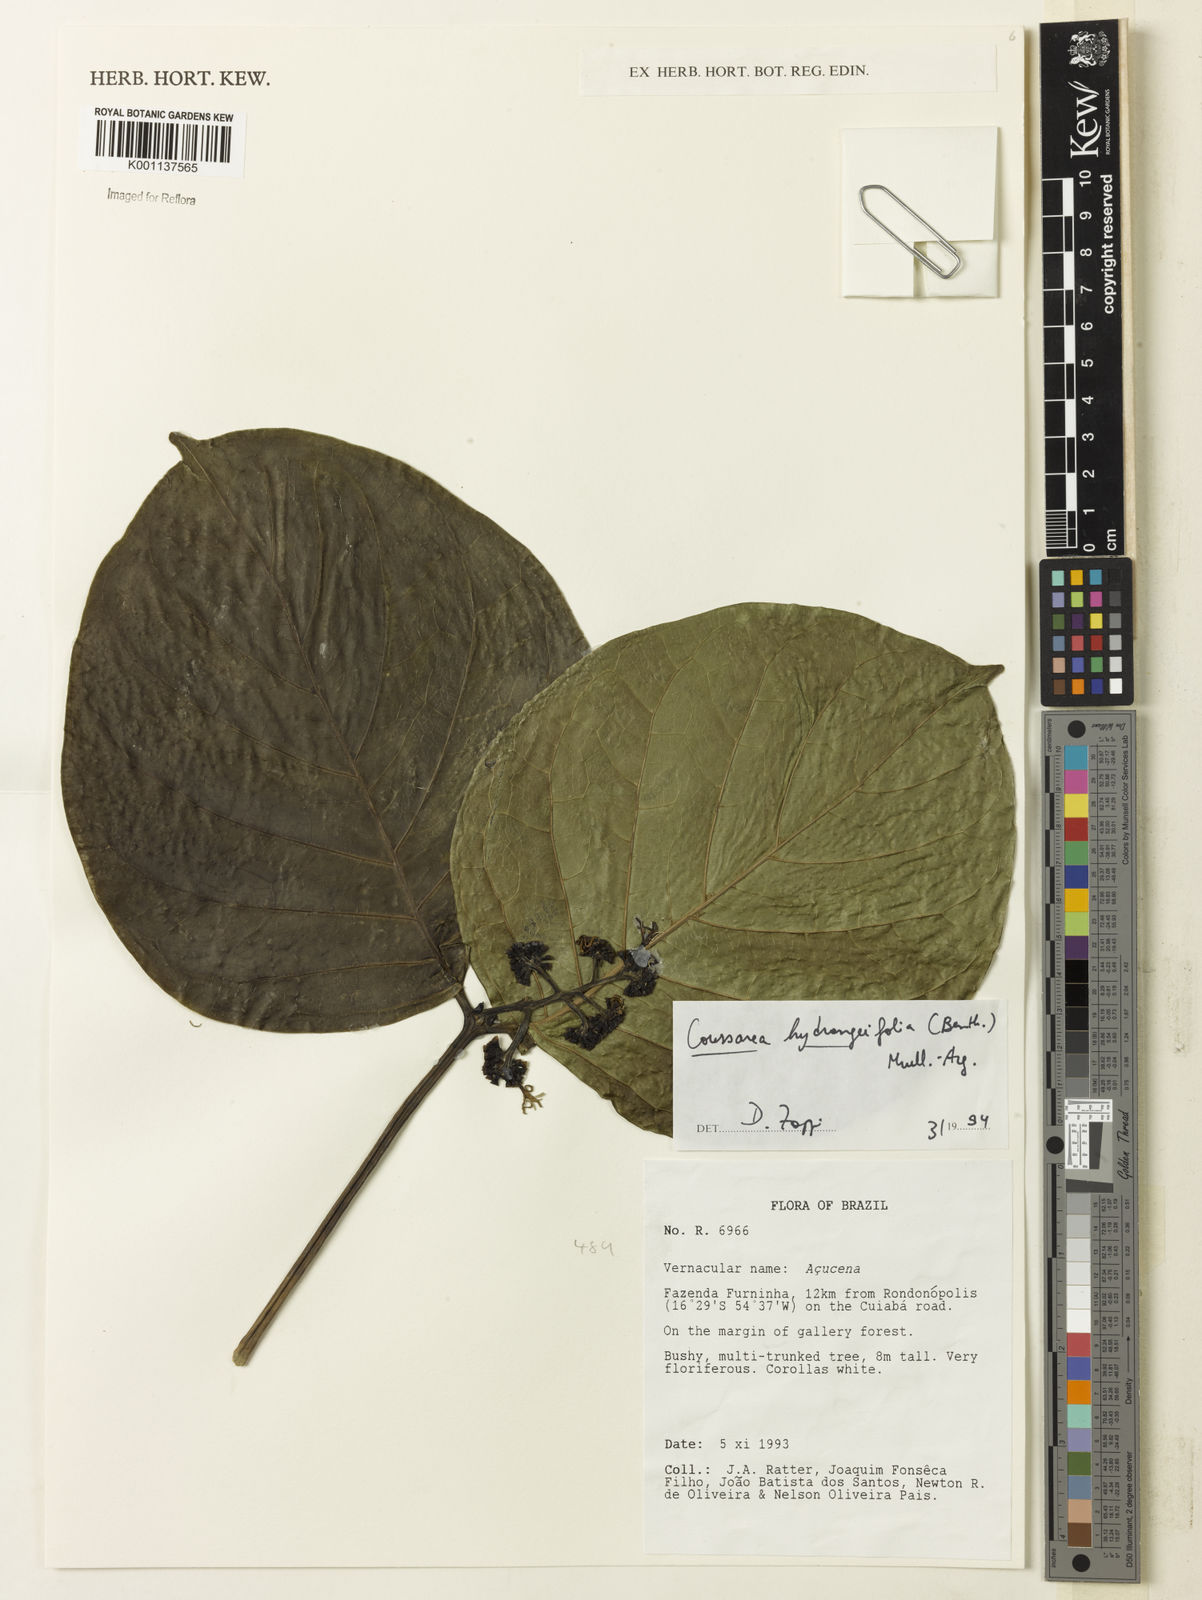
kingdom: Plantae
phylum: Tracheophyta
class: Magnoliopsida
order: Gentianales
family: Rubiaceae
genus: Coussarea
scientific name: Coussarea
